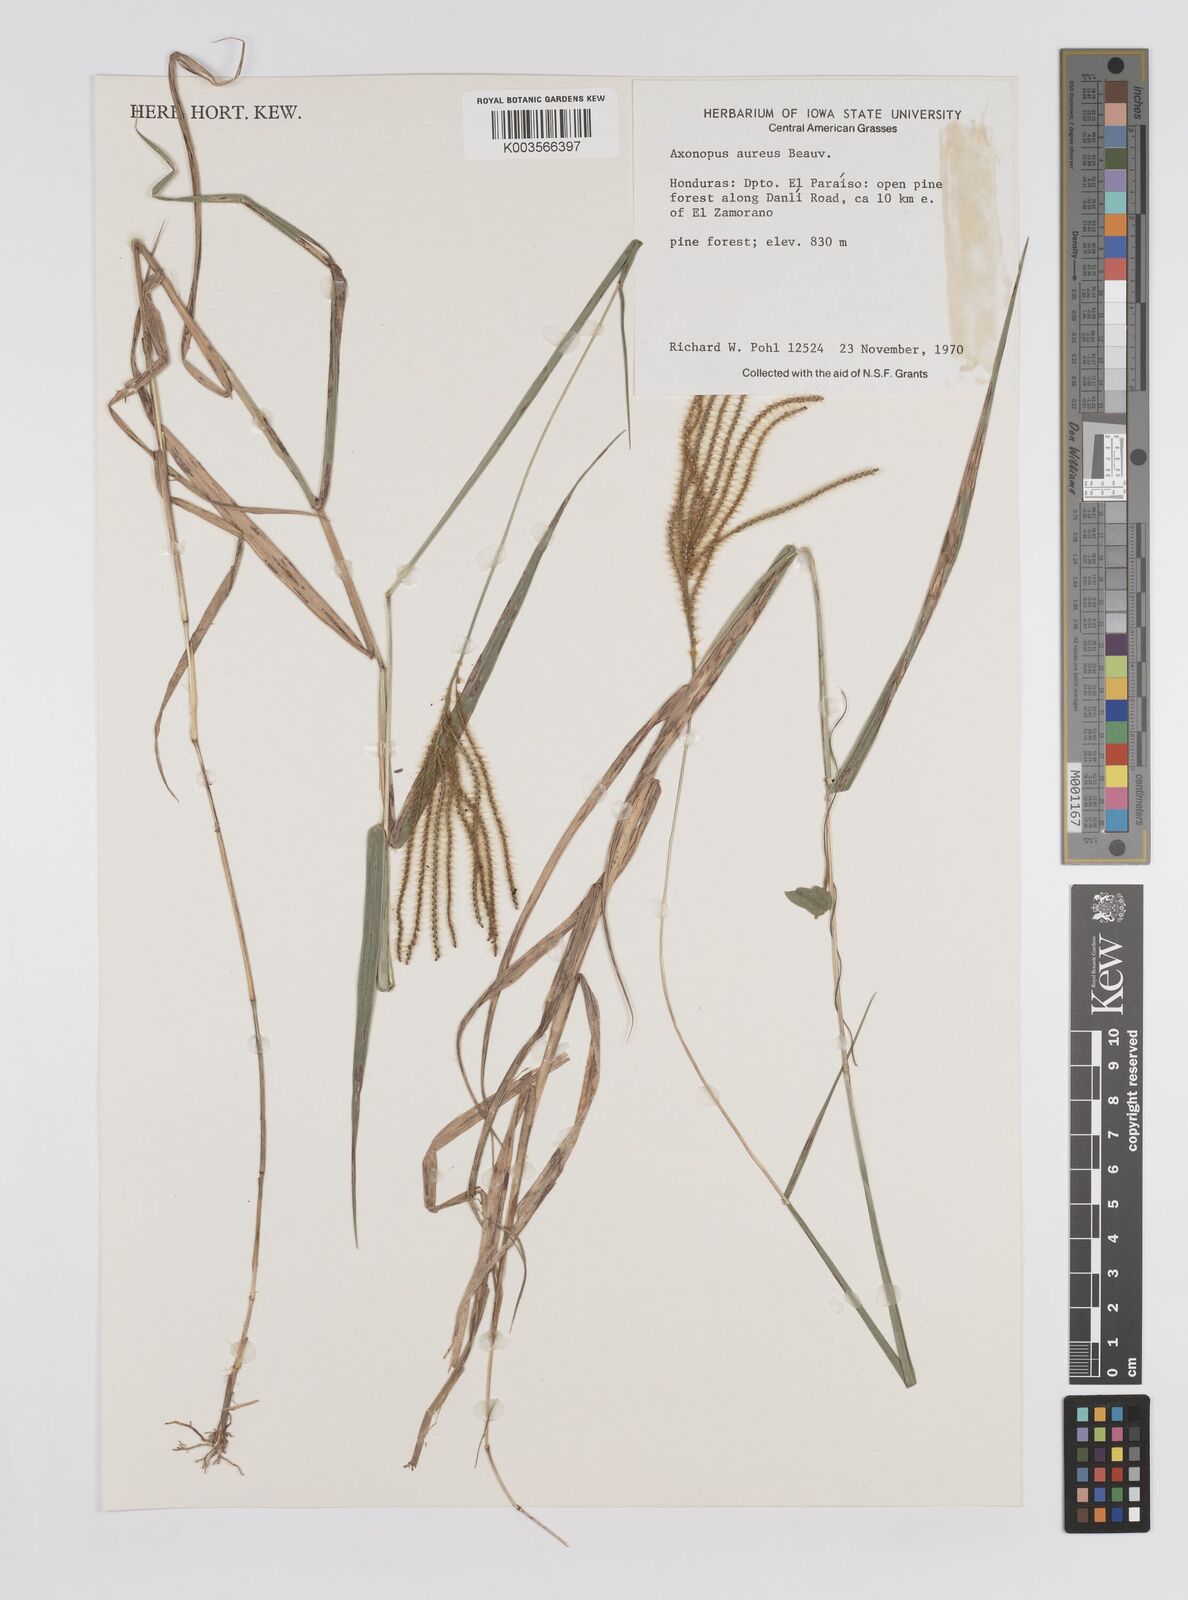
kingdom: Plantae
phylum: Tracheophyta
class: Liliopsida
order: Poales
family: Poaceae
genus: Axonopus
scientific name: Axonopus aureus
